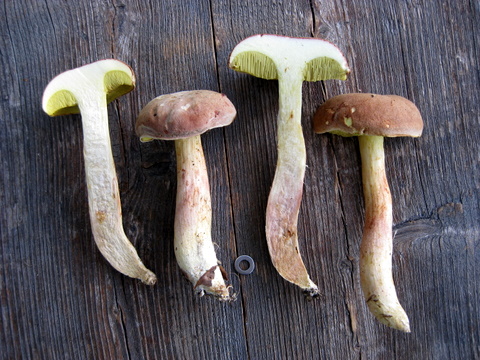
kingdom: Fungi
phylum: Basidiomycota
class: Agaricomycetes
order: Boletales
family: Boletaceae
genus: Xerocomus
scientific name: Xerocomus ferrugineus
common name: vaskeskinds-rørhat
